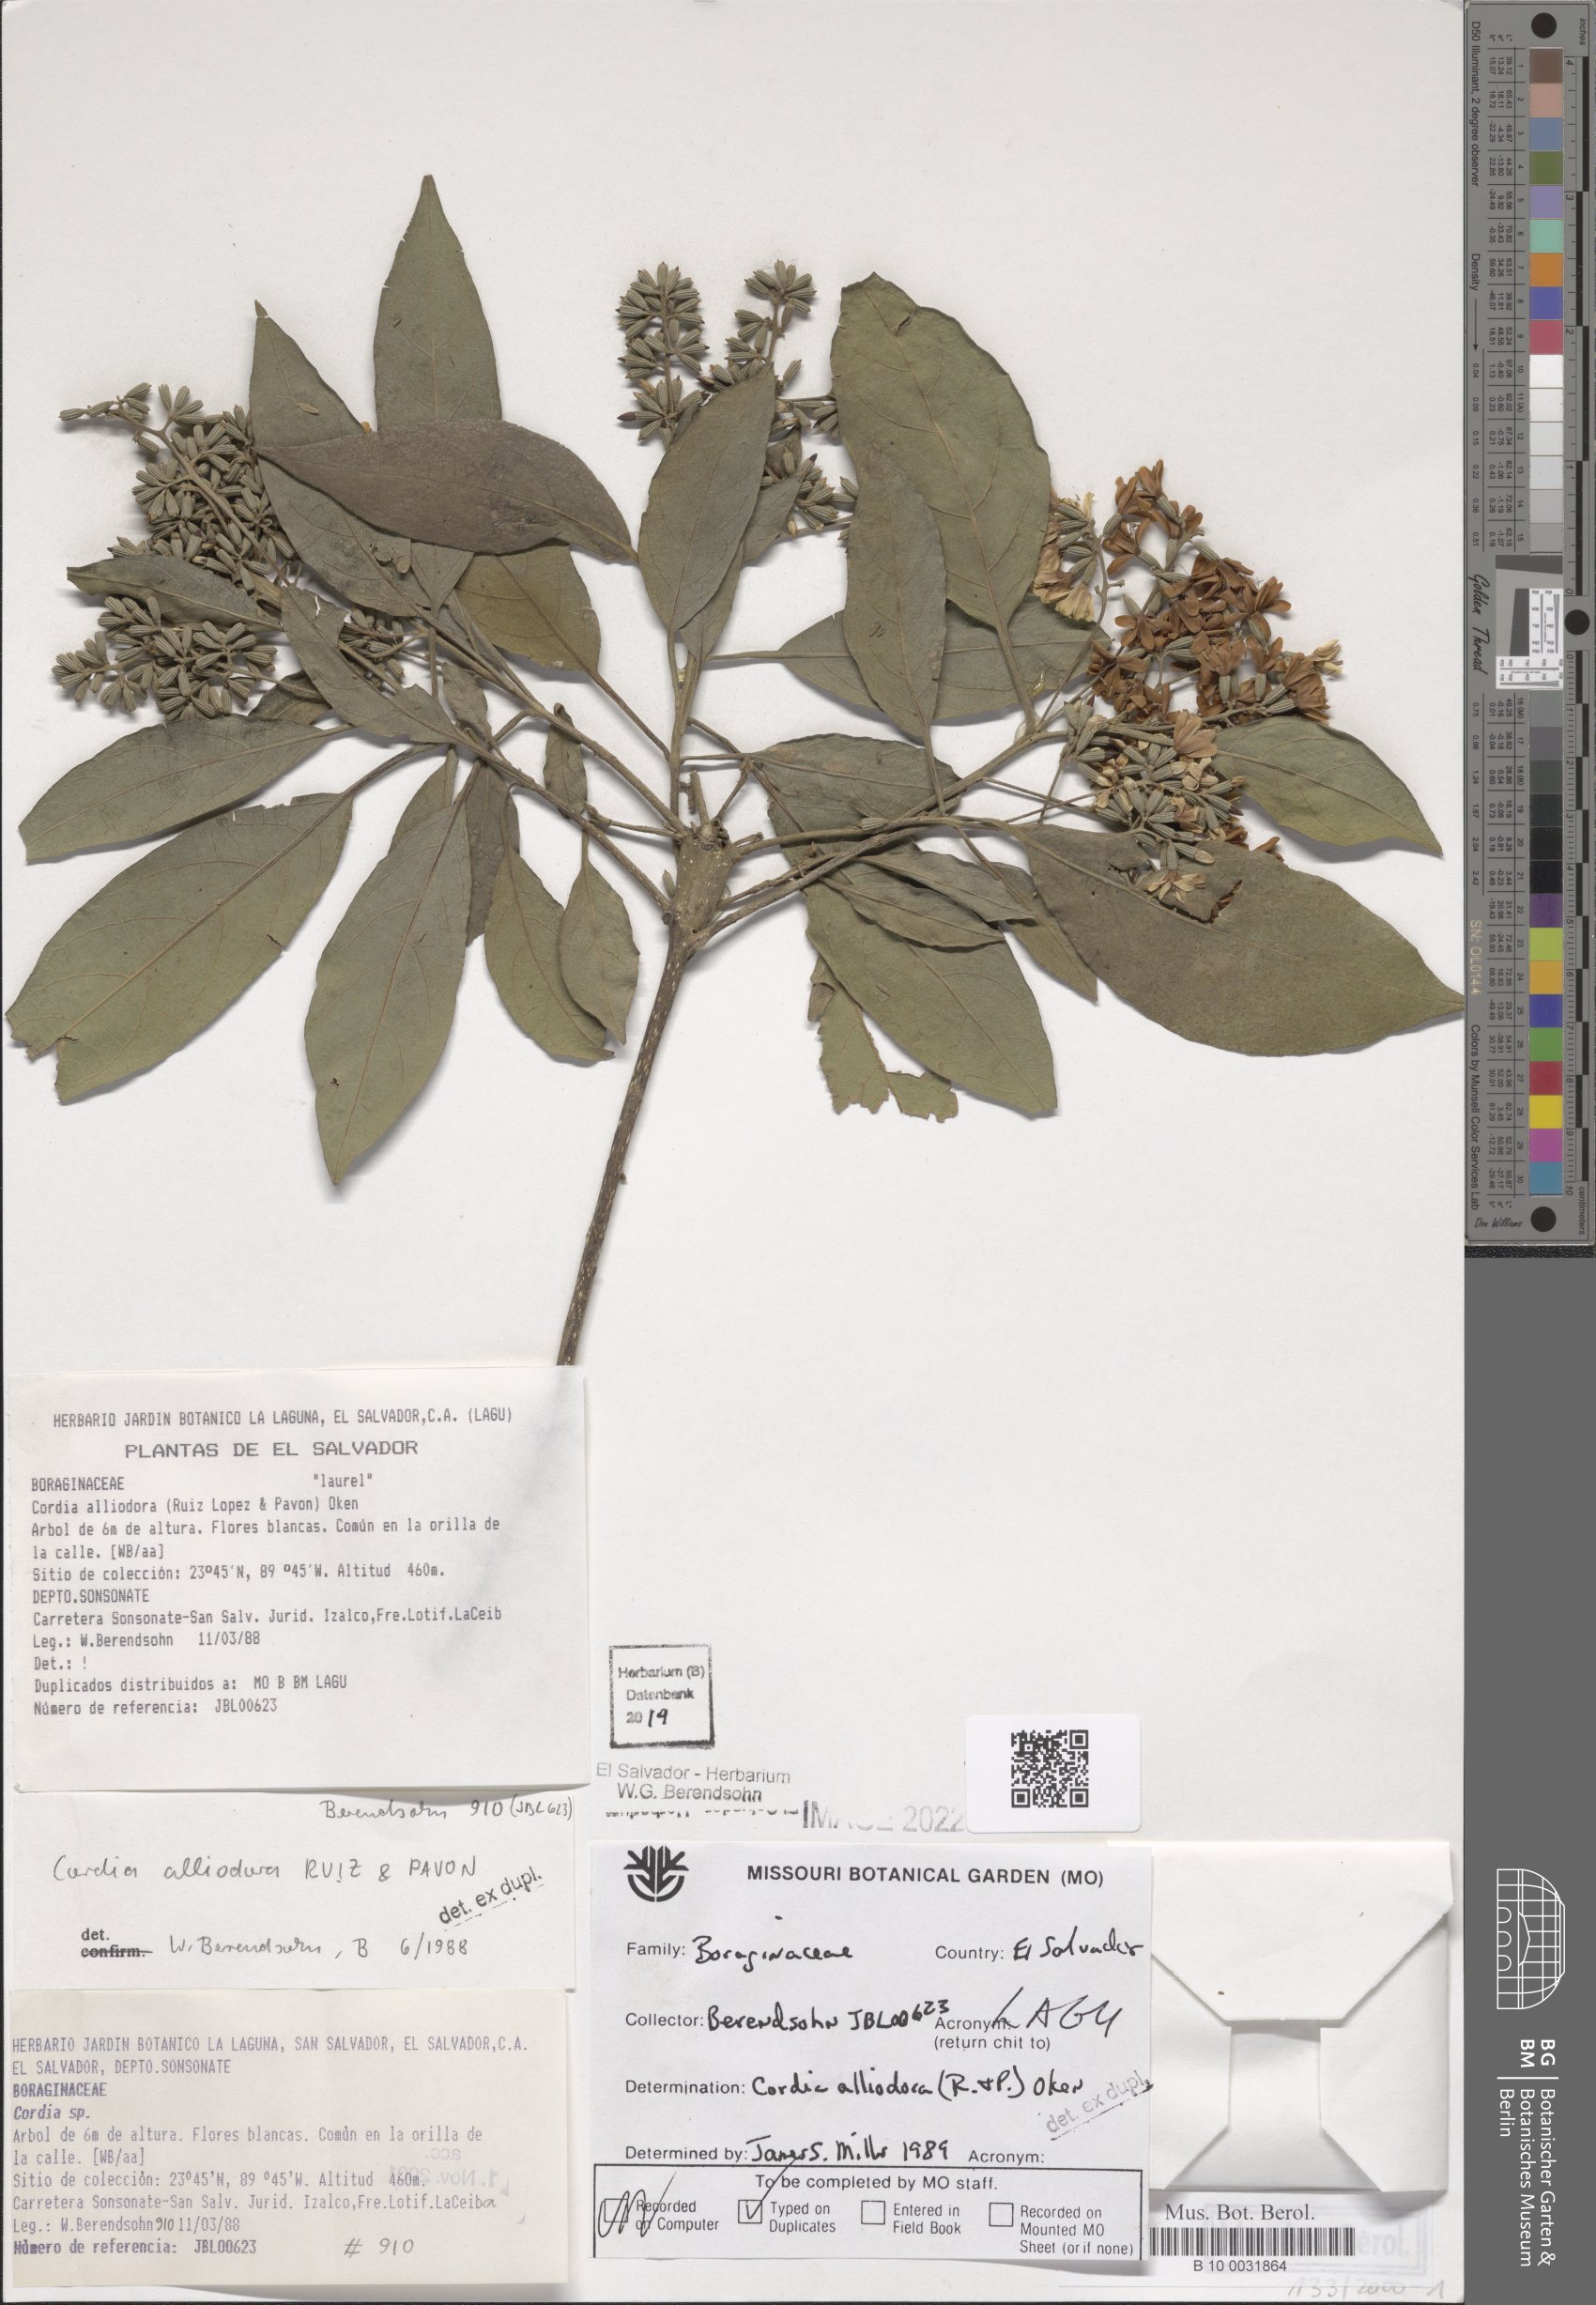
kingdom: Plantae
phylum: Tracheophyta
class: Magnoliopsida
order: Boraginales
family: Cordiaceae
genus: Cordia
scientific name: Cordia alliodora
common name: Spanish elm
